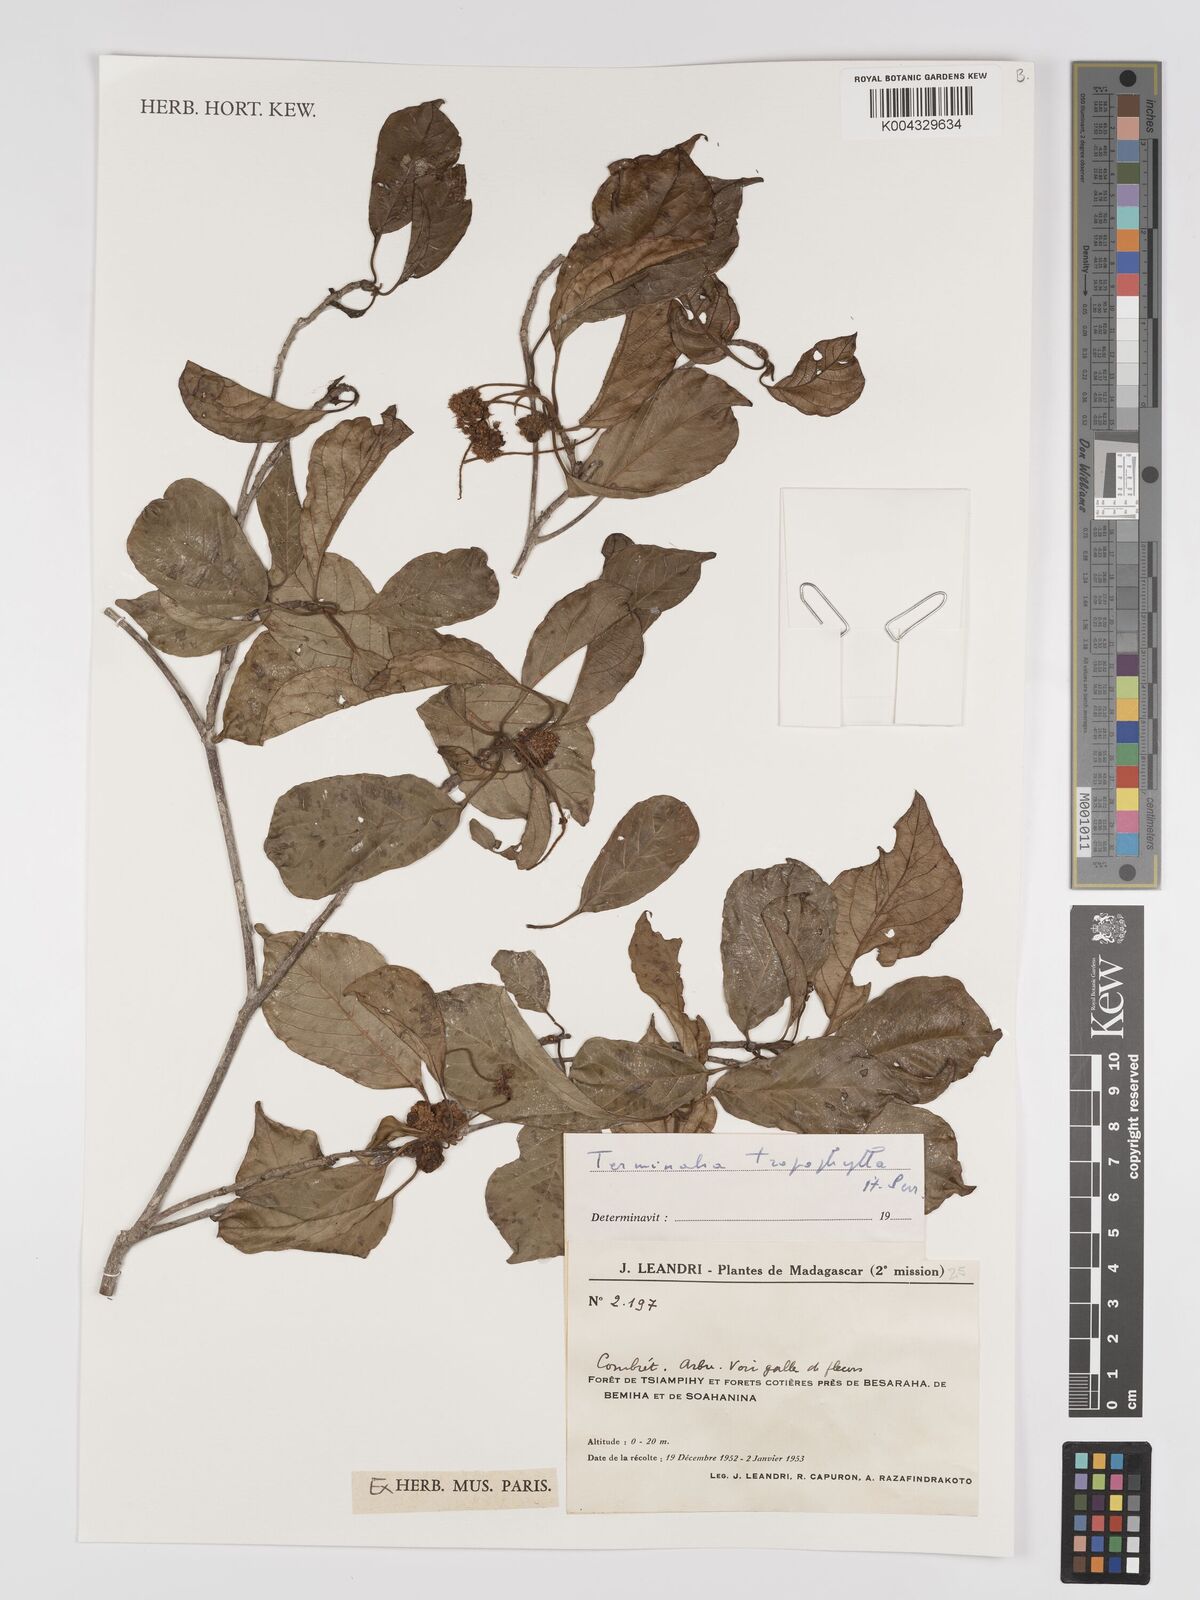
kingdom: Plantae
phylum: Tracheophyta
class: Magnoliopsida
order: Myrtales
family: Combretaceae
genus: Terminalia
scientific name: Terminalia tropophylla
